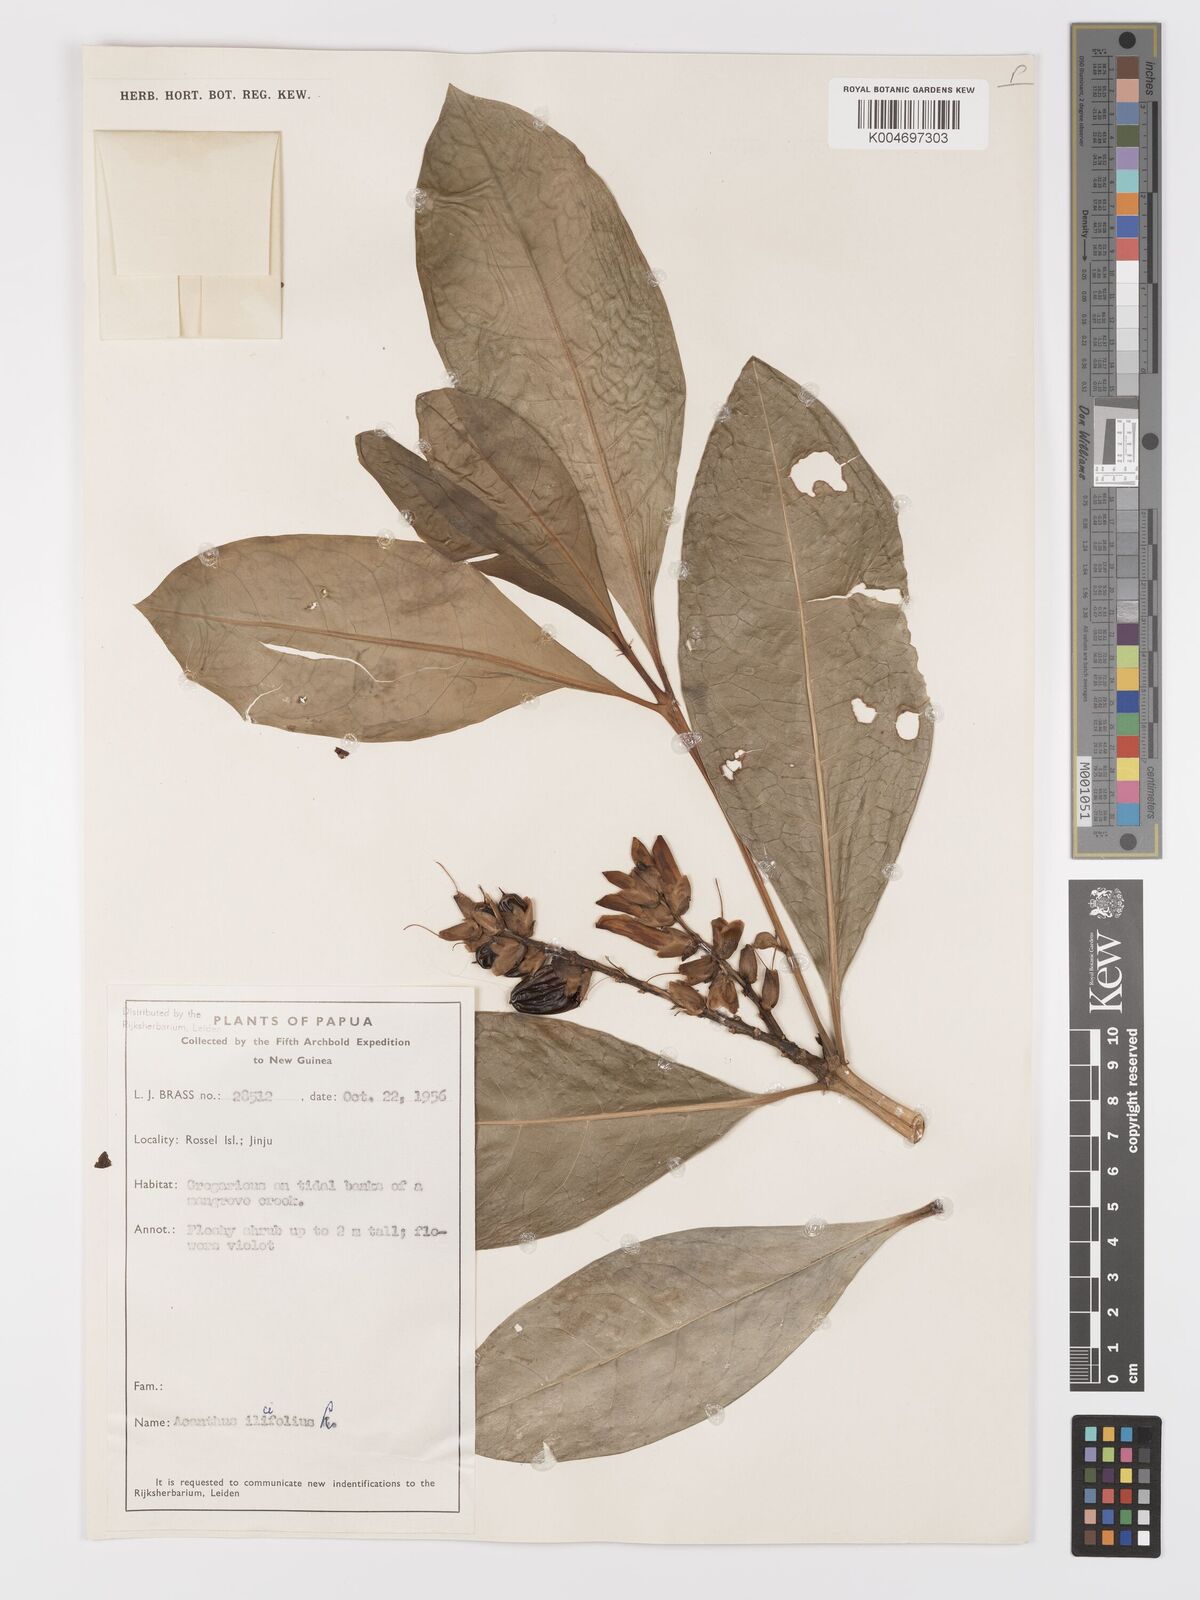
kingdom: Plantae
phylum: Tracheophyta
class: Magnoliopsida
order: Lamiales
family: Acanthaceae
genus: Acanthus
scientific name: Acanthus ilicifolius
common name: Holy mangrove
